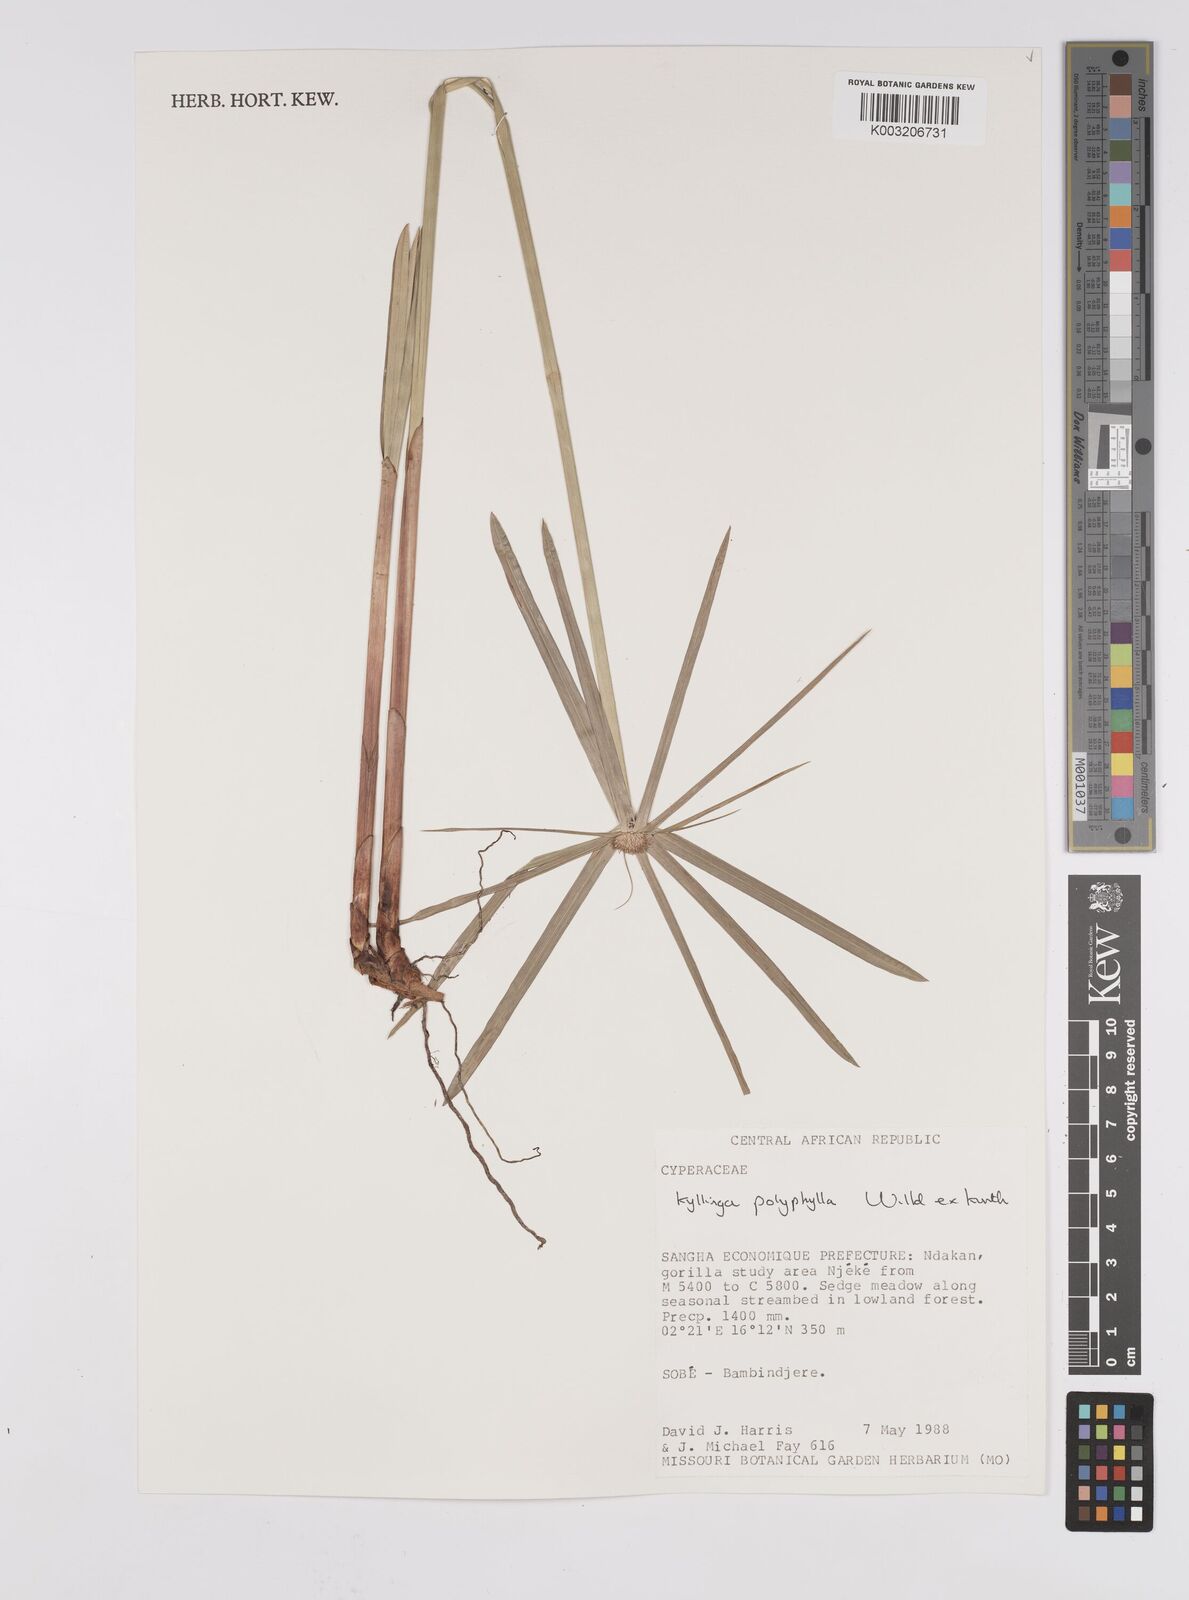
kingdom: Plantae
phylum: Tracheophyta
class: Liliopsida
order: Poales
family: Cyperaceae
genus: Cyperus
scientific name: Cyperus
